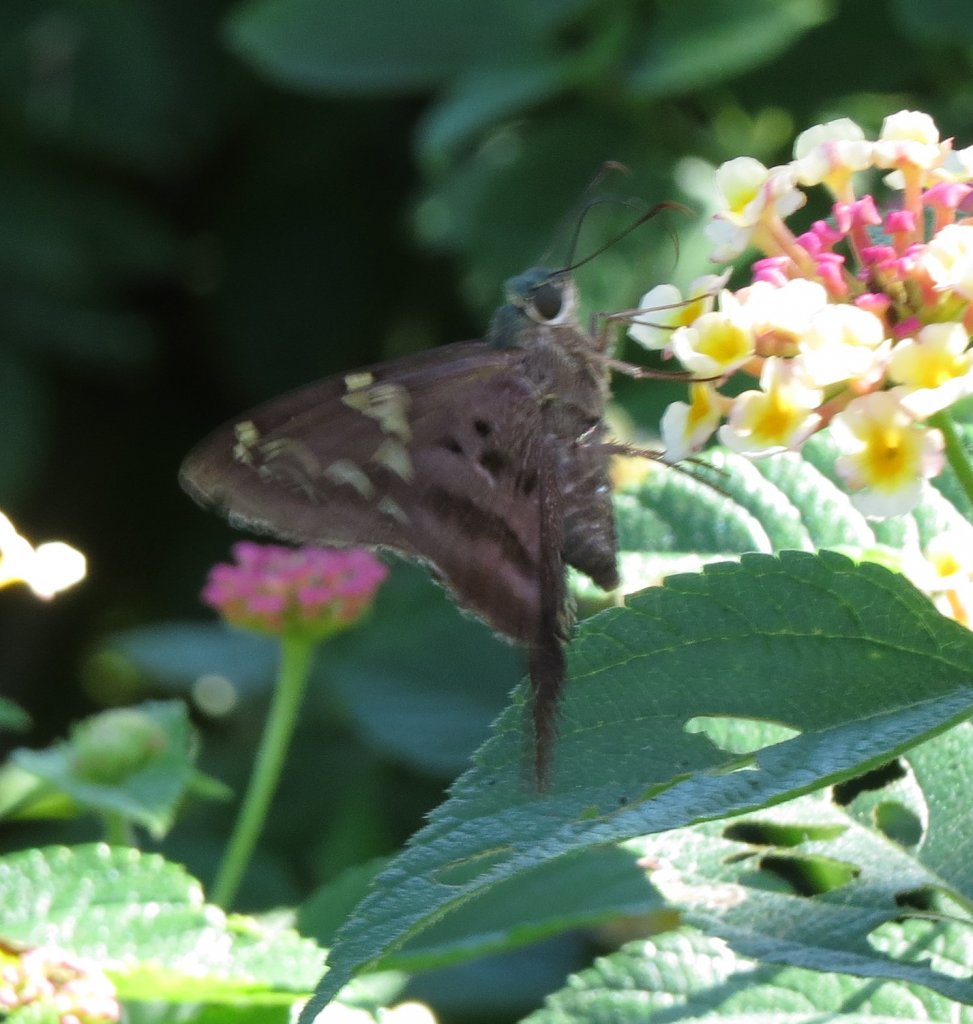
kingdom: Animalia
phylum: Arthropoda
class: Insecta
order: Lepidoptera
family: Hesperiidae
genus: Urbanus
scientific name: Urbanus proteus
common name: Long-tailed Skipper
